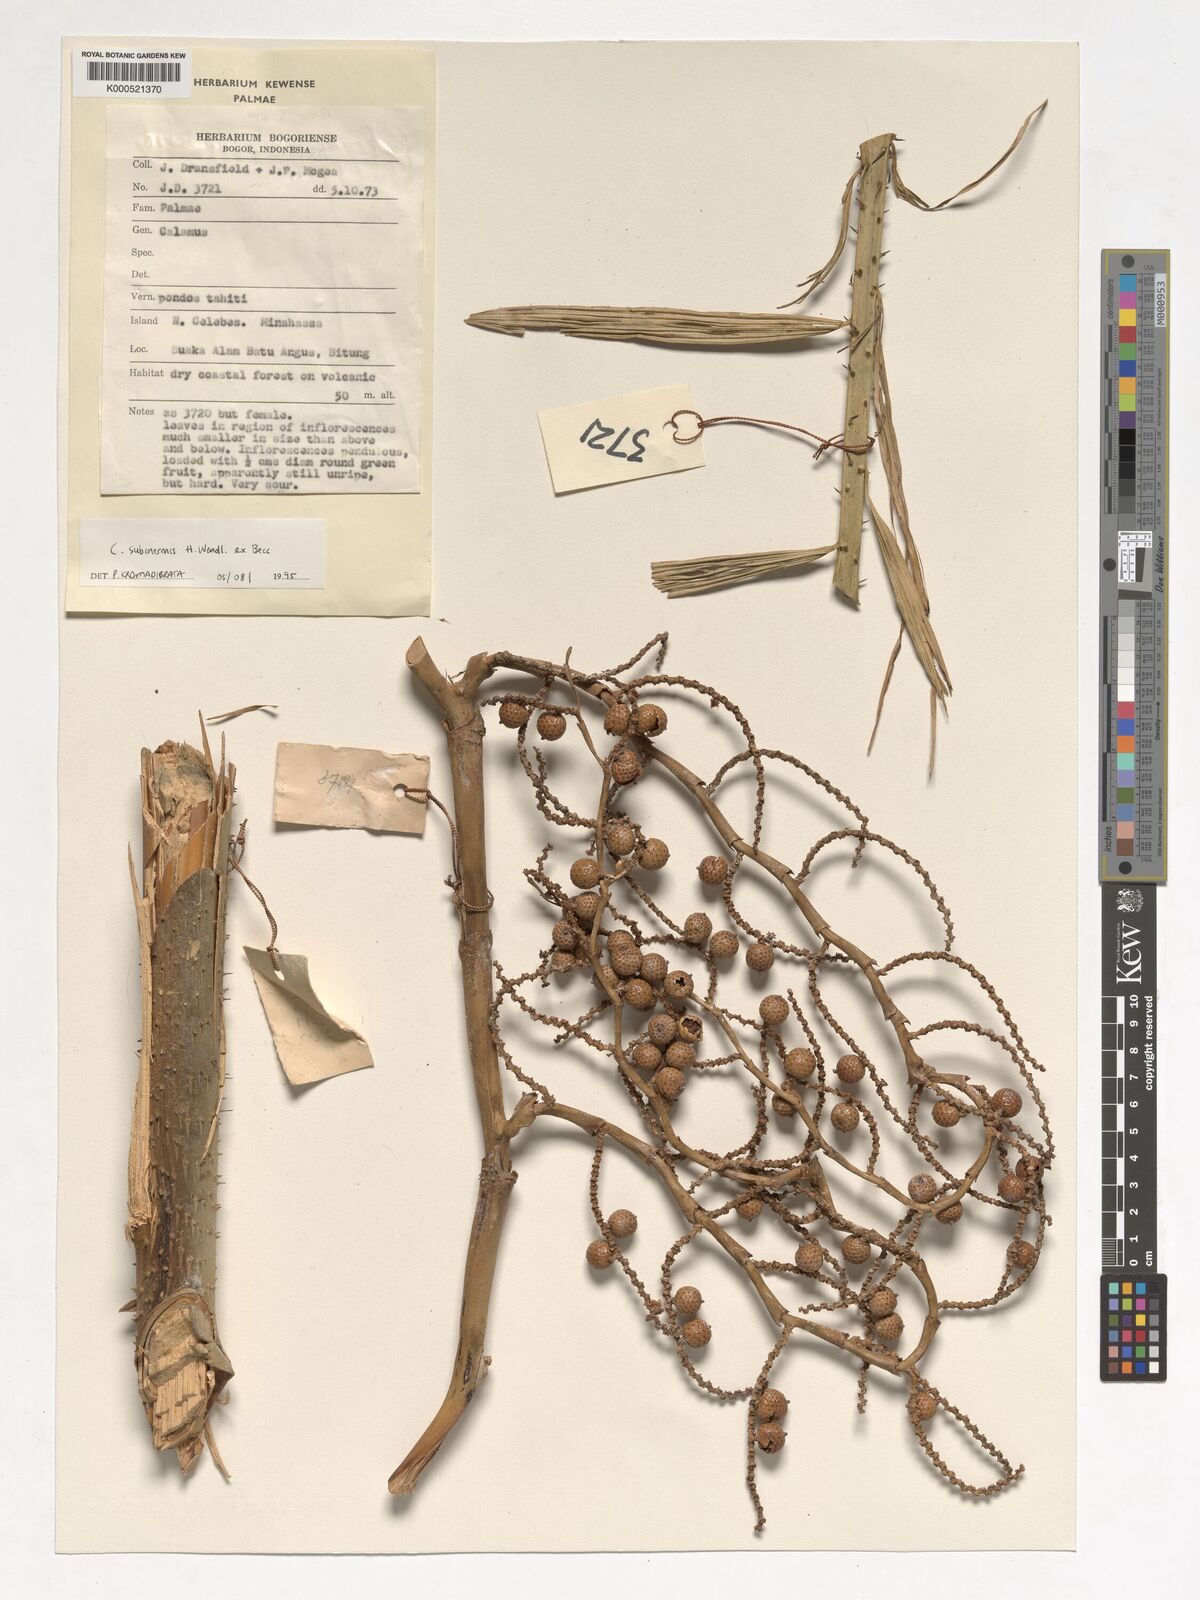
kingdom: Plantae
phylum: Tracheophyta
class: Liliopsida
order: Arecales
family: Arecaceae
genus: Calamus
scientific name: Calamus moseleyanus
